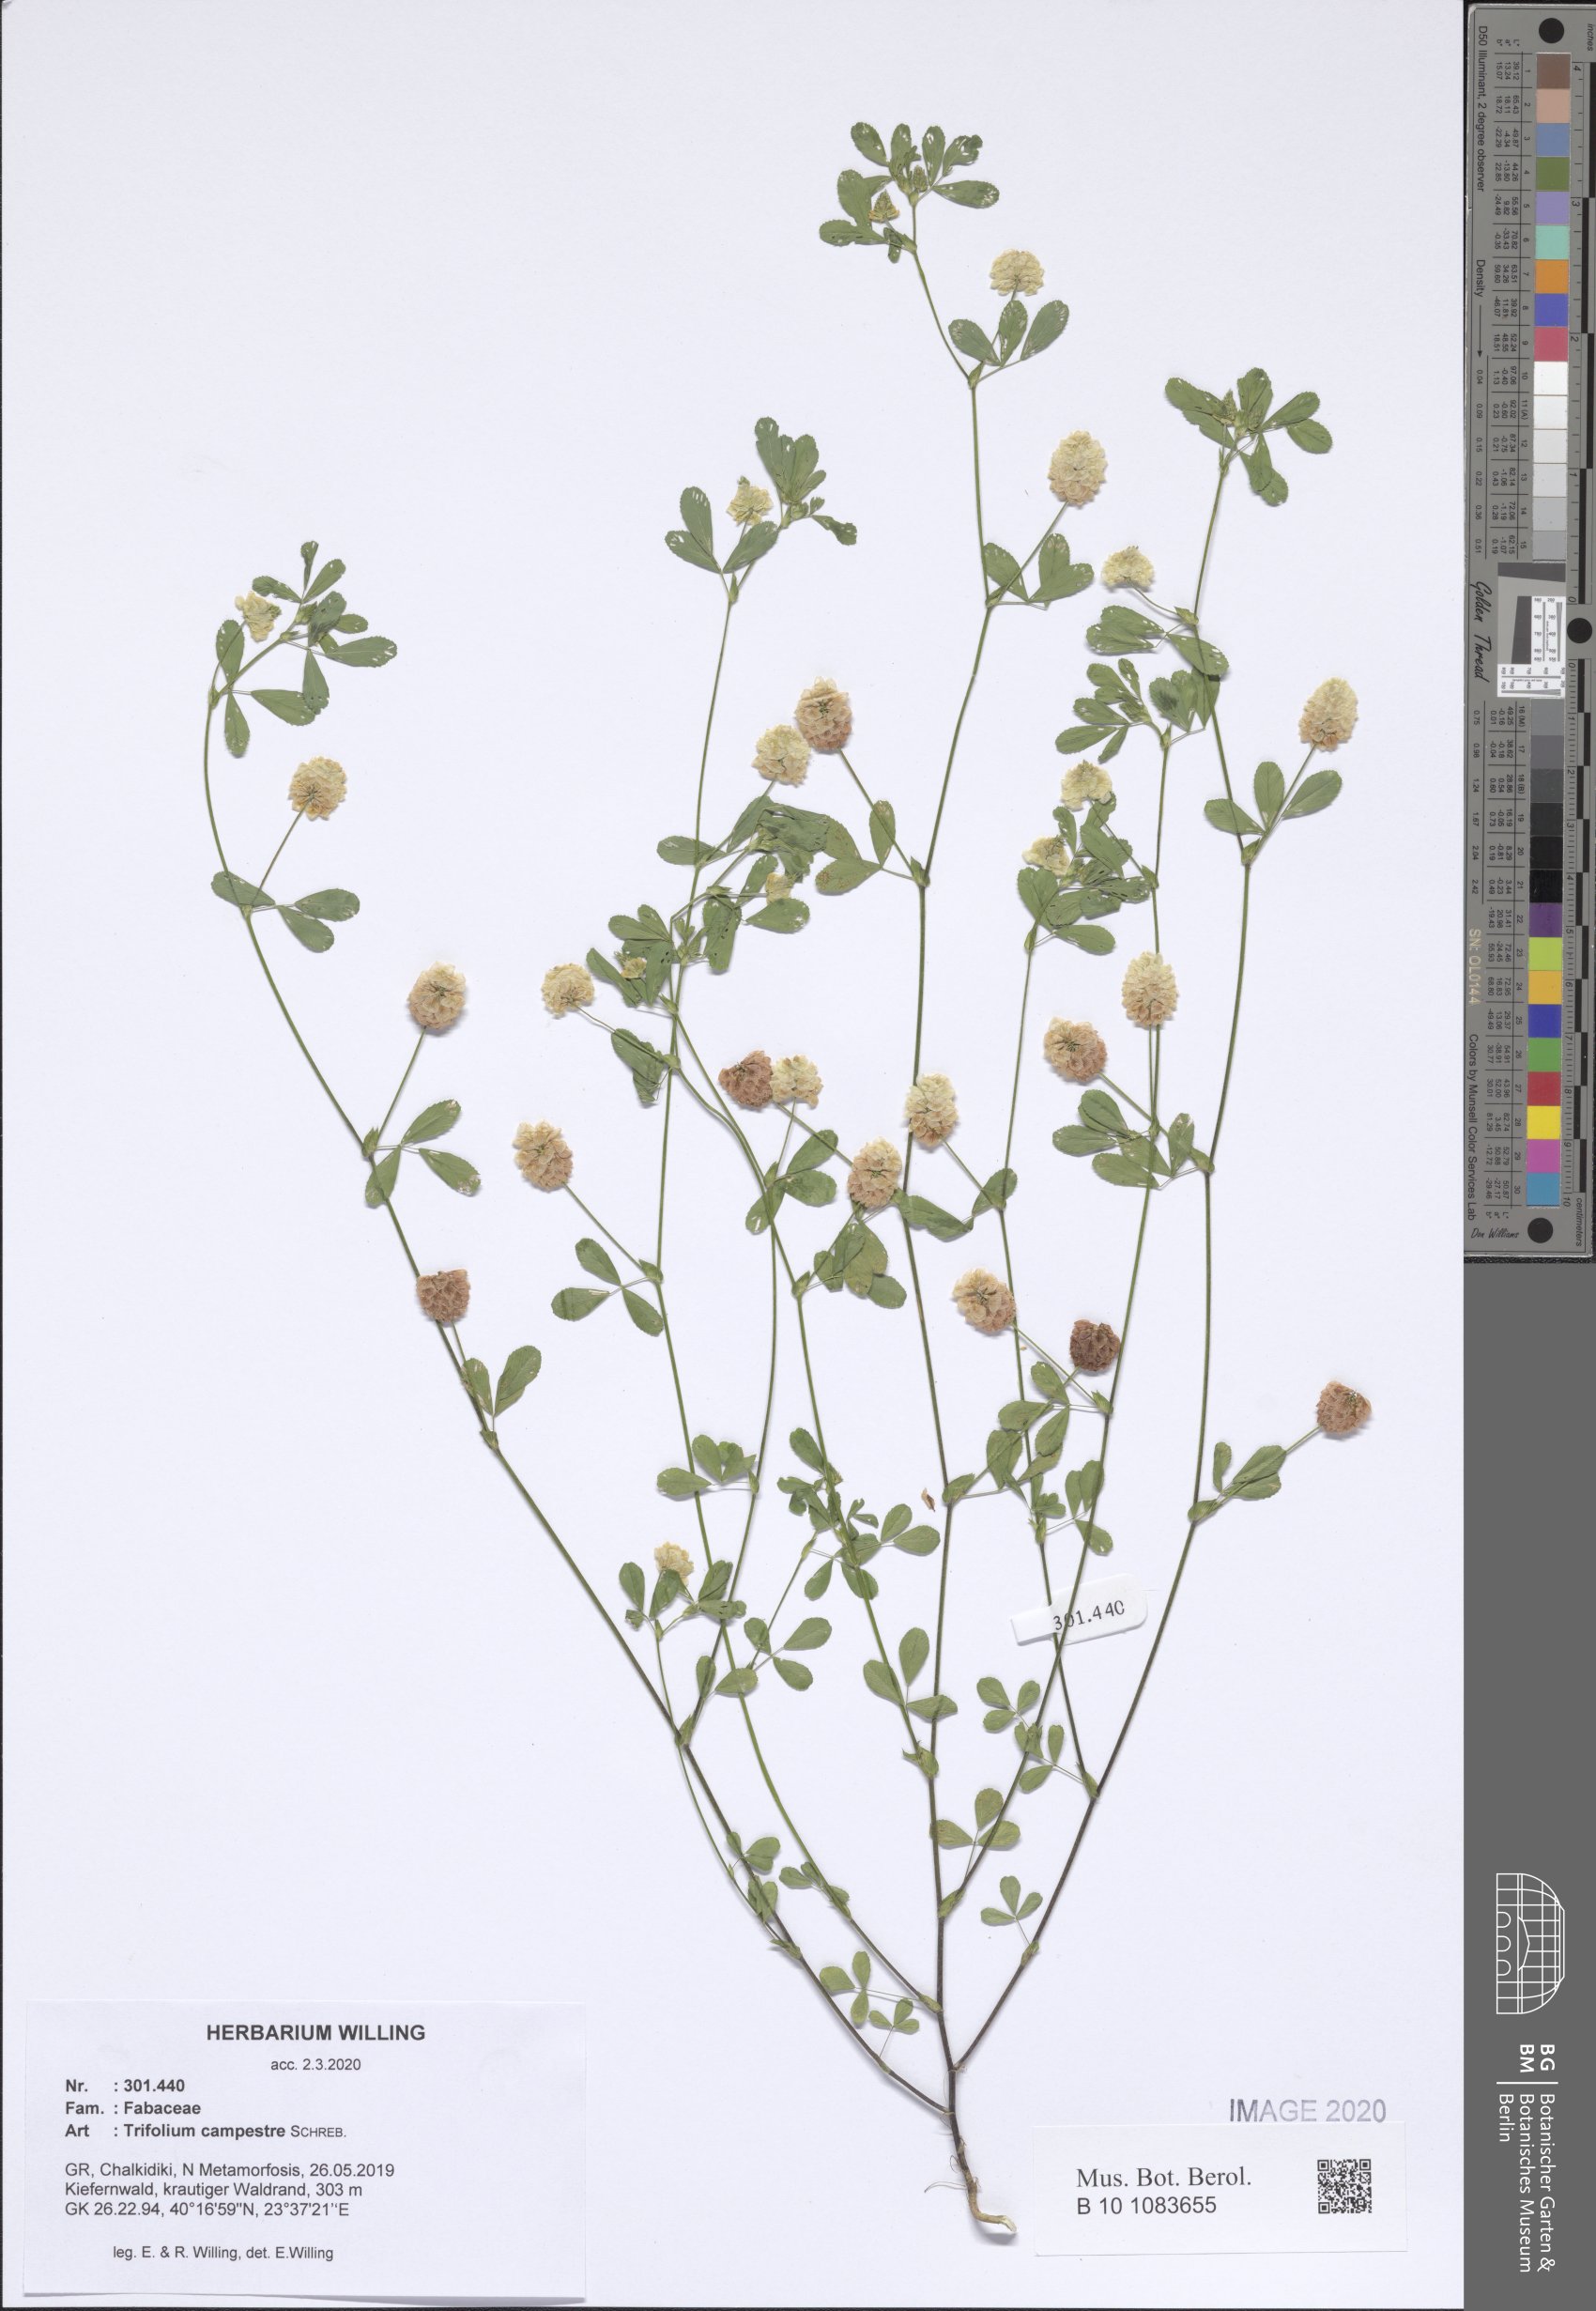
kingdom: Plantae
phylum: Tracheophyta
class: Magnoliopsida
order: Fabales
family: Fabaceae
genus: Trifolium
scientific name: Trifolium campestre
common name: Field clover
